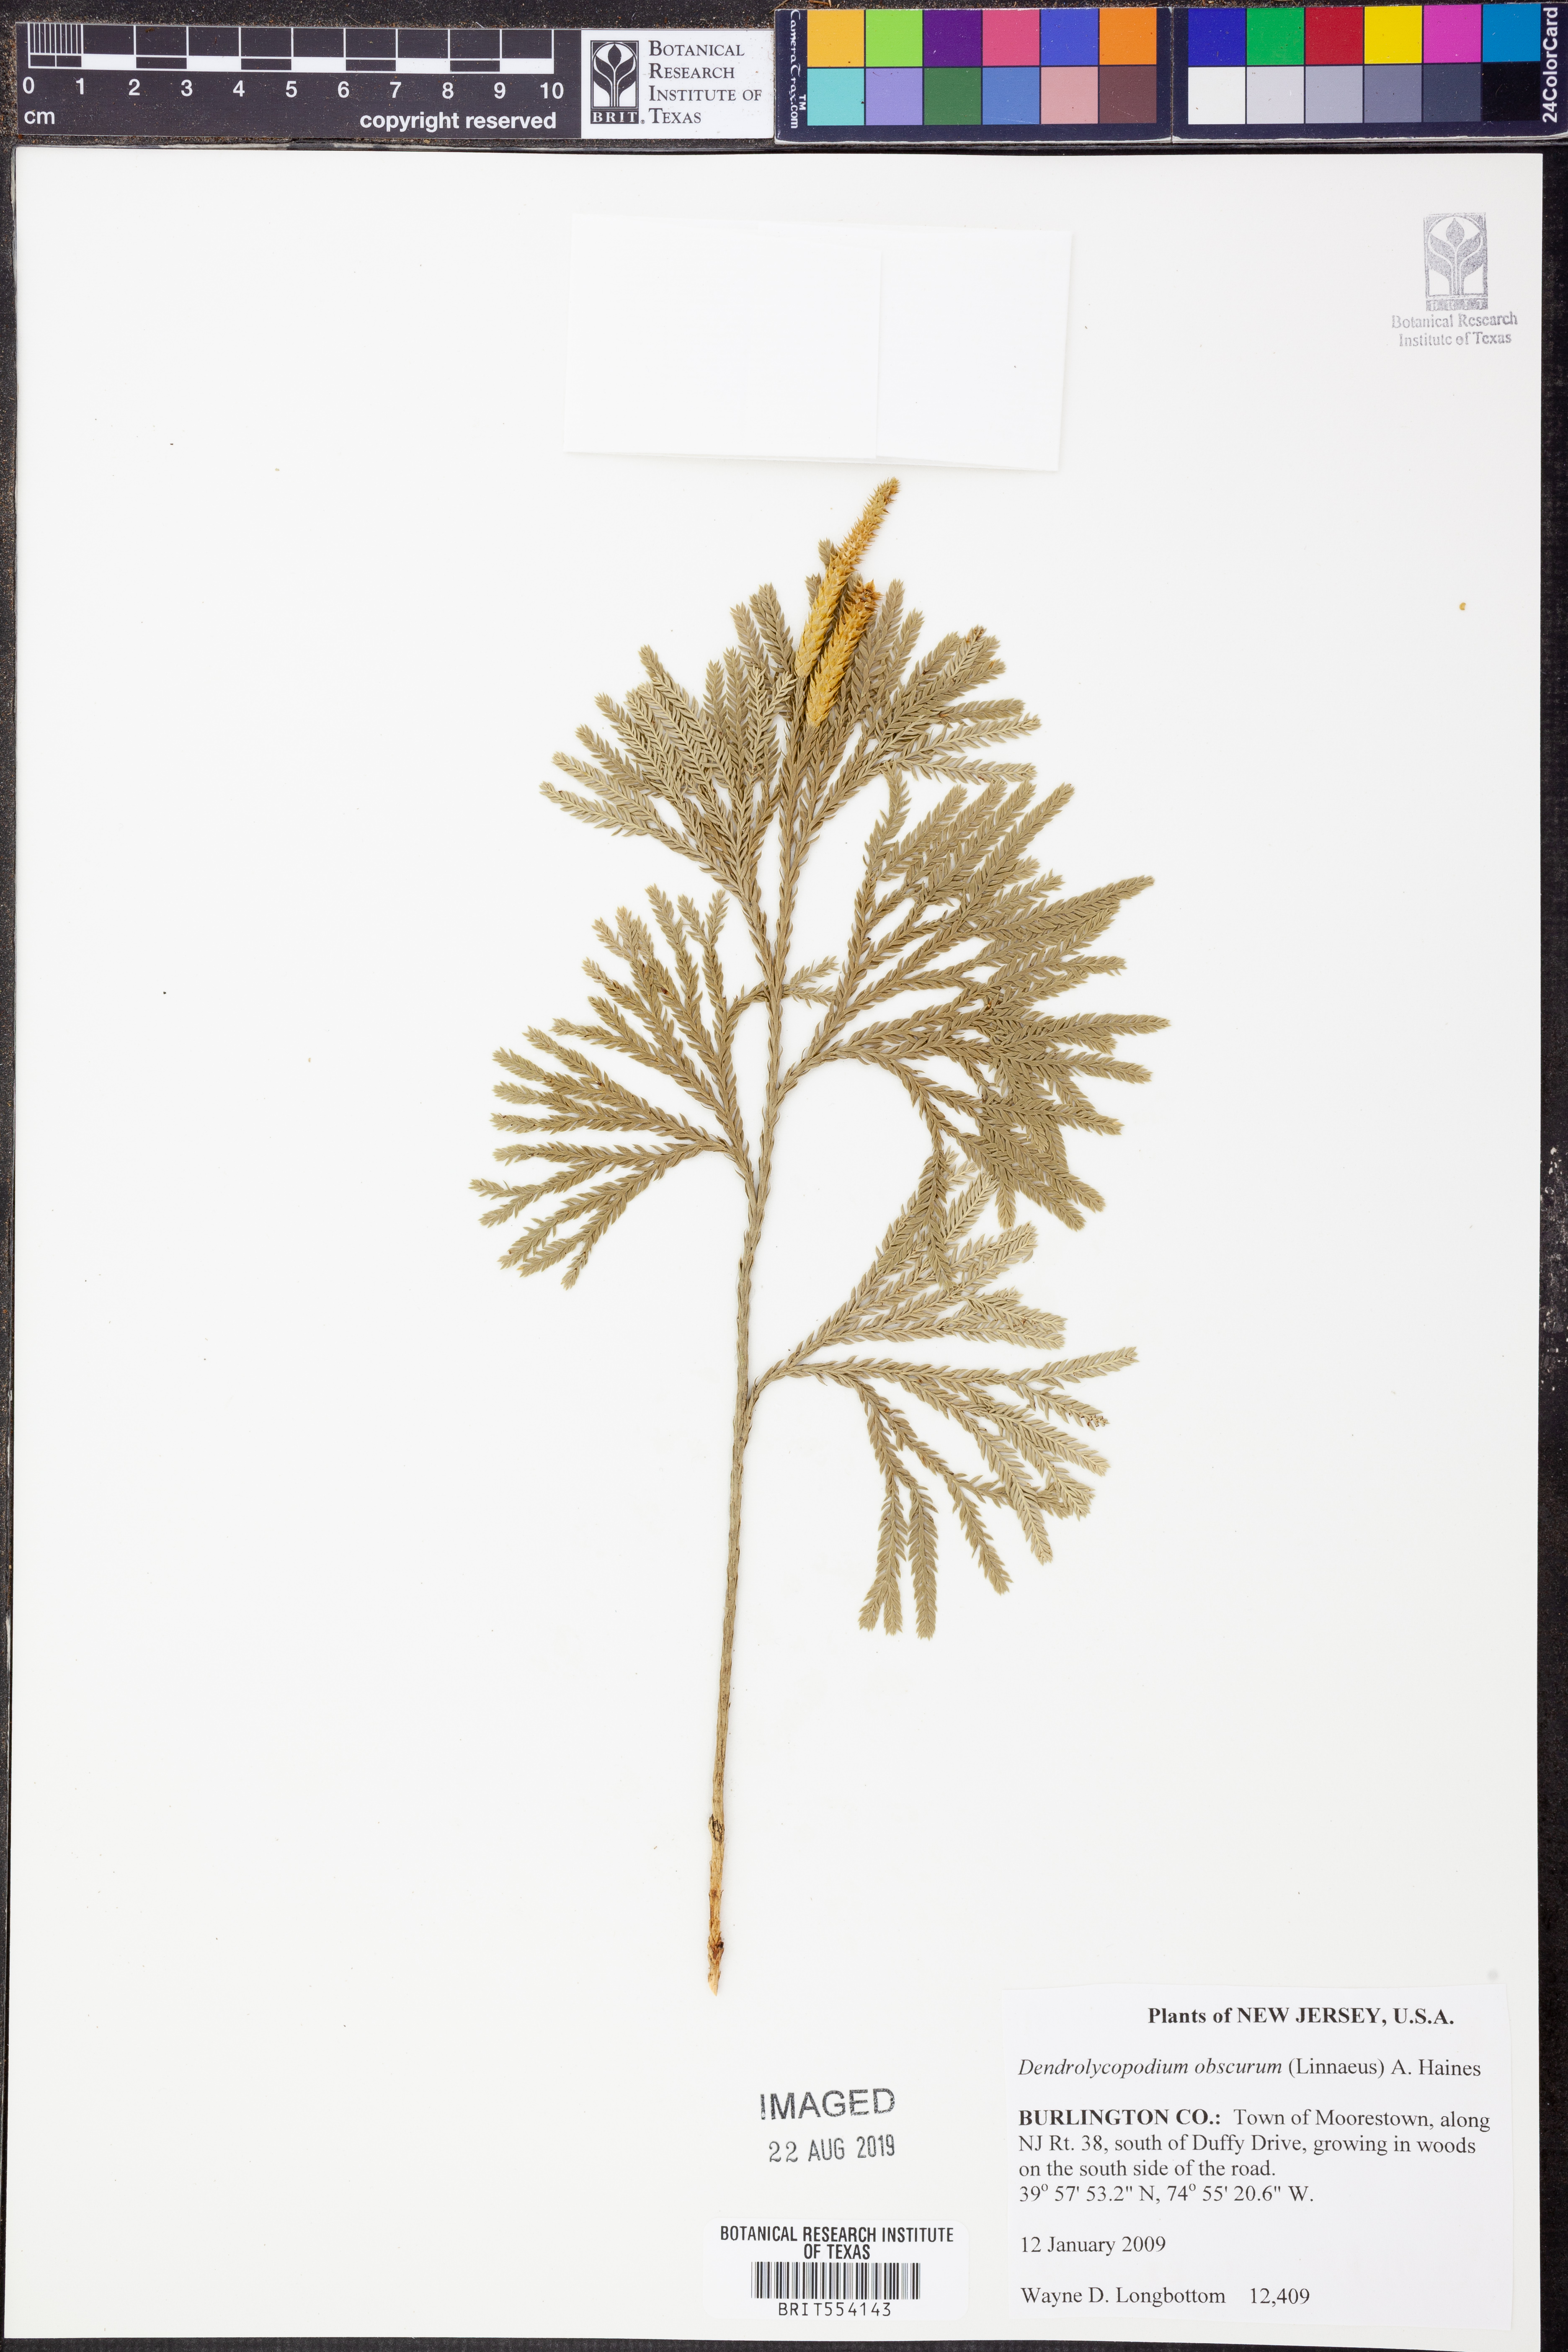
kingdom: Plantae
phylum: Tracheophyta
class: Lycopodiopsida
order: Lycopodiales
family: Lycopodiaceae
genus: Dendrolycopodium
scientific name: Dendrolycopodium obscurum
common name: Common ground-pine
